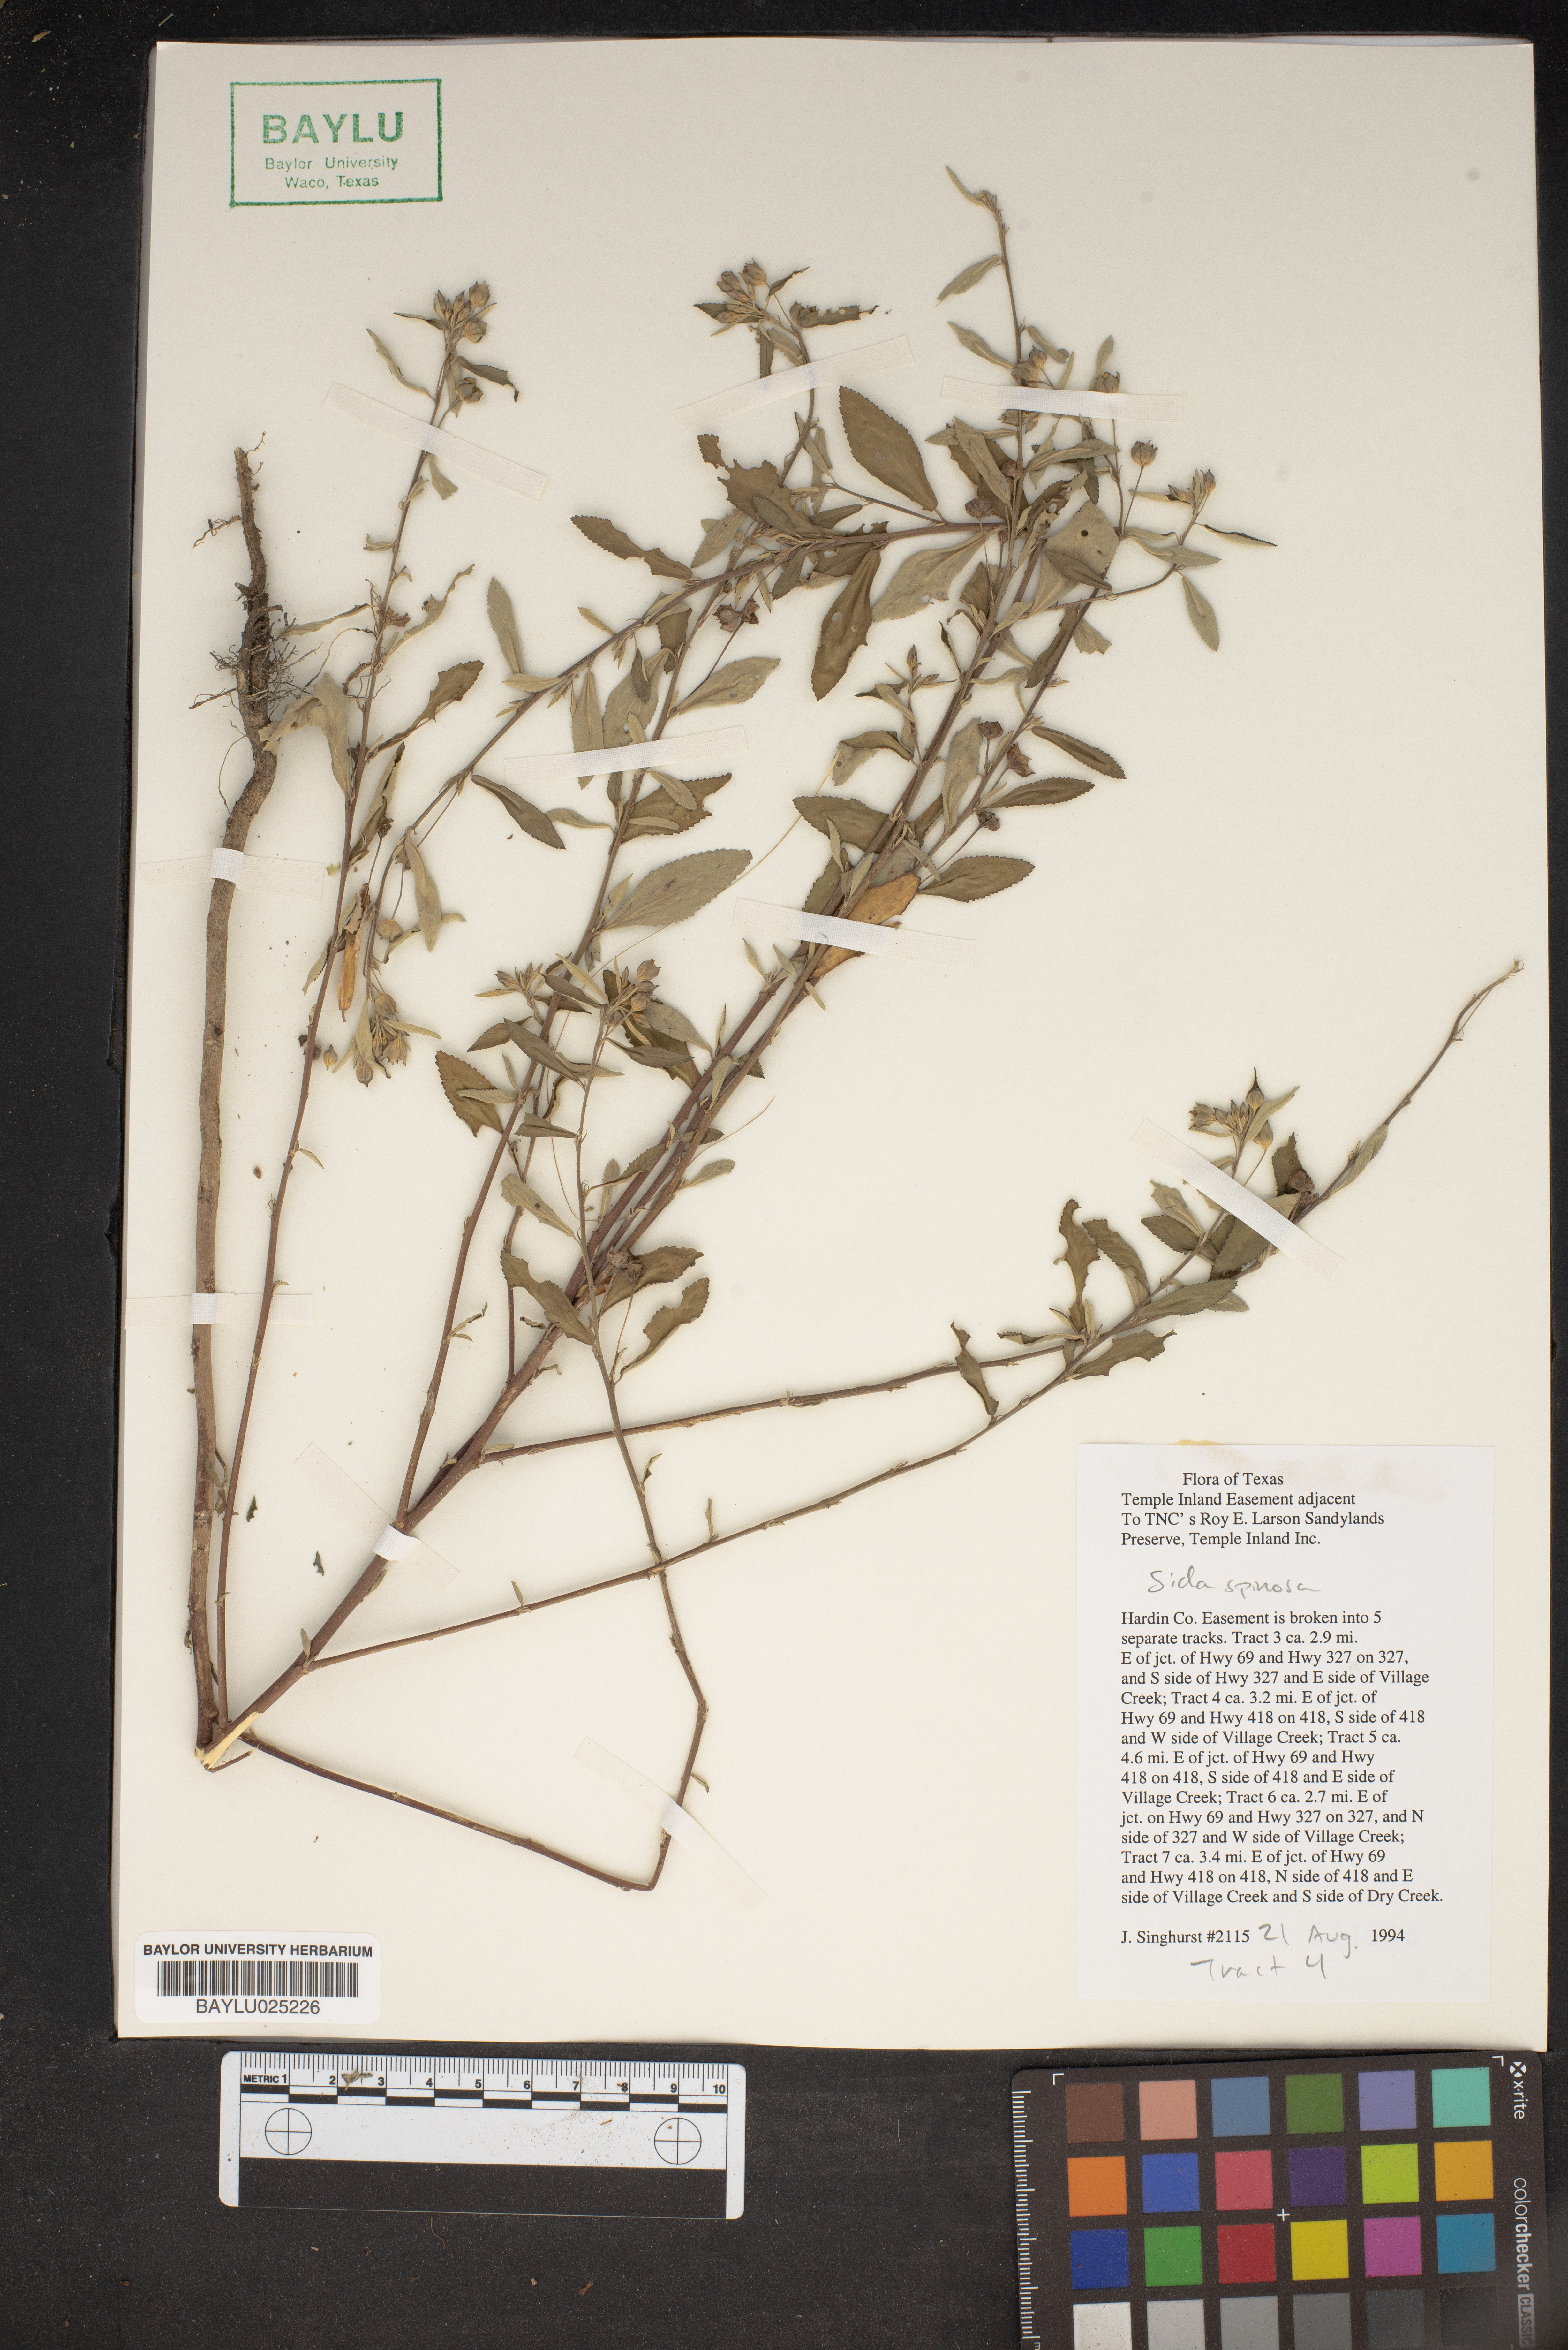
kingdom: Plantae
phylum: Tracheophyta
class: Magnoliopsida
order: Malvales
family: Malvaceae
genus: Sida
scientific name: Sida spinosa
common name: Prickly fanpetals
